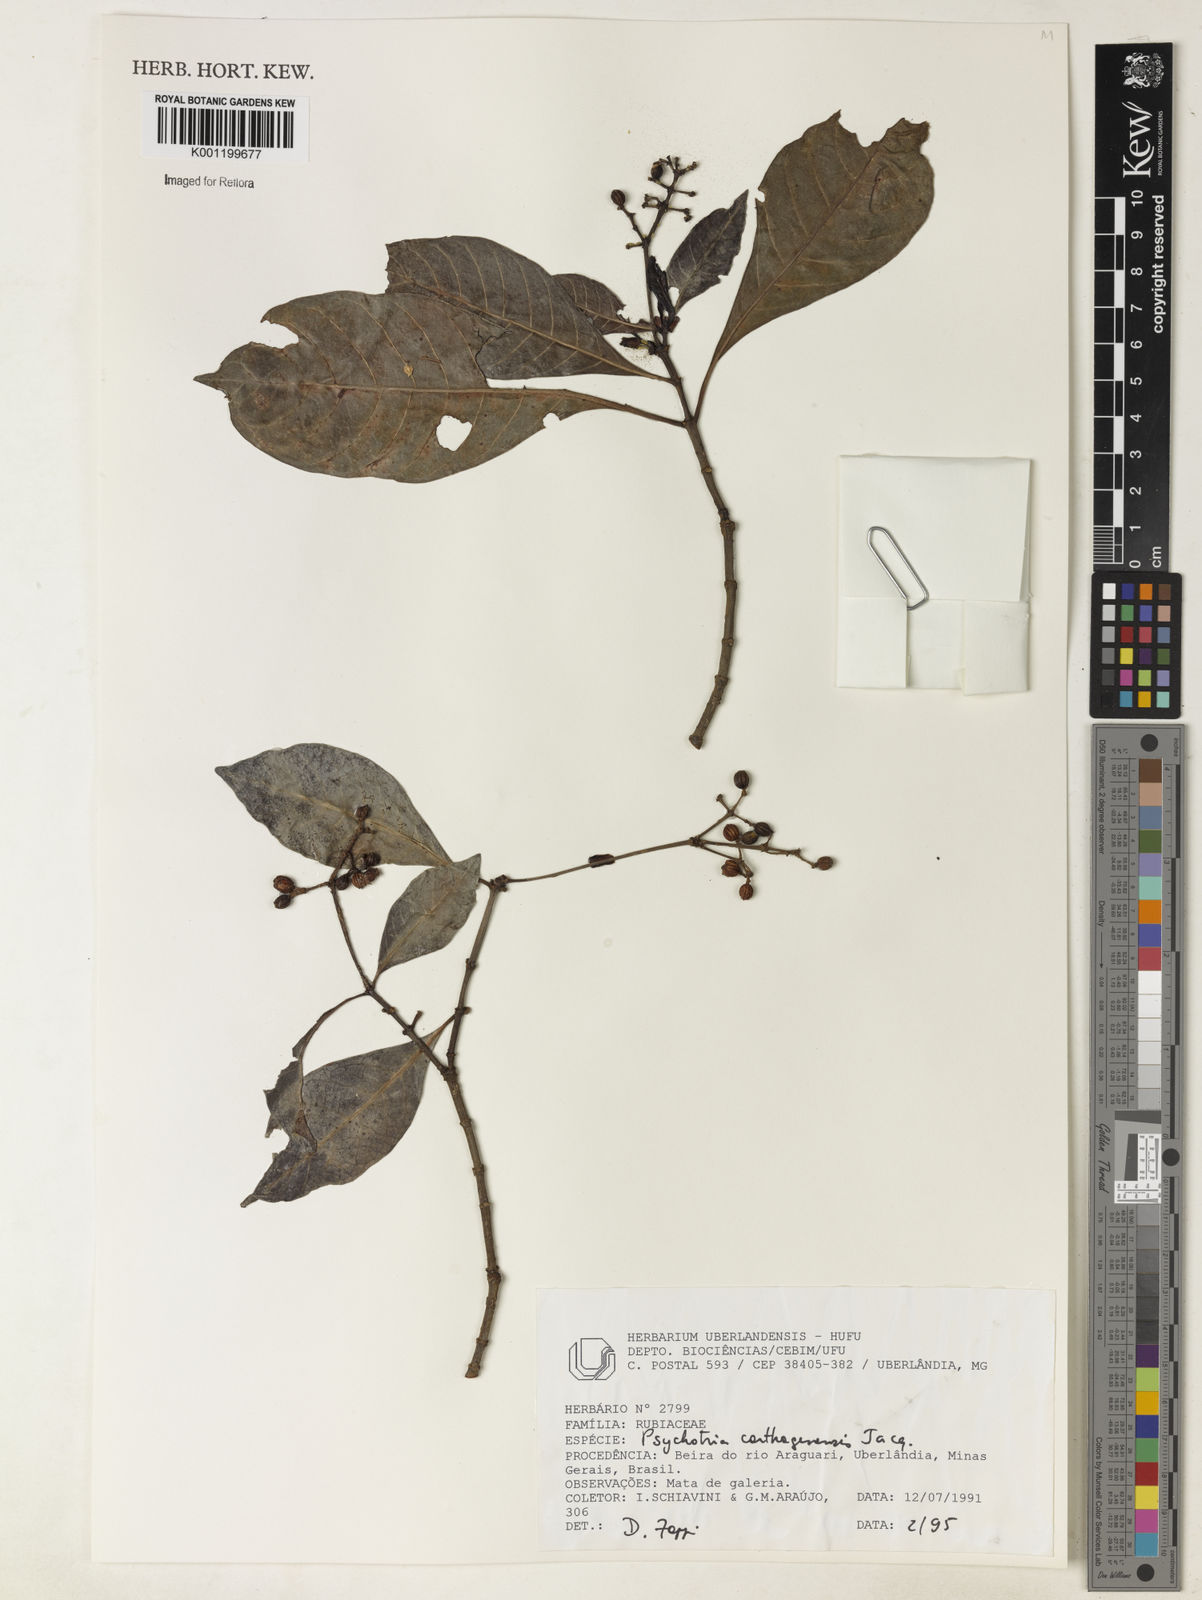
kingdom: Plantae
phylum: Tracheophyta
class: Magnoliopsida
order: Gentianales
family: Rubiaceae
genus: Psychotria
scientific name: Psychotria carthagenensis
